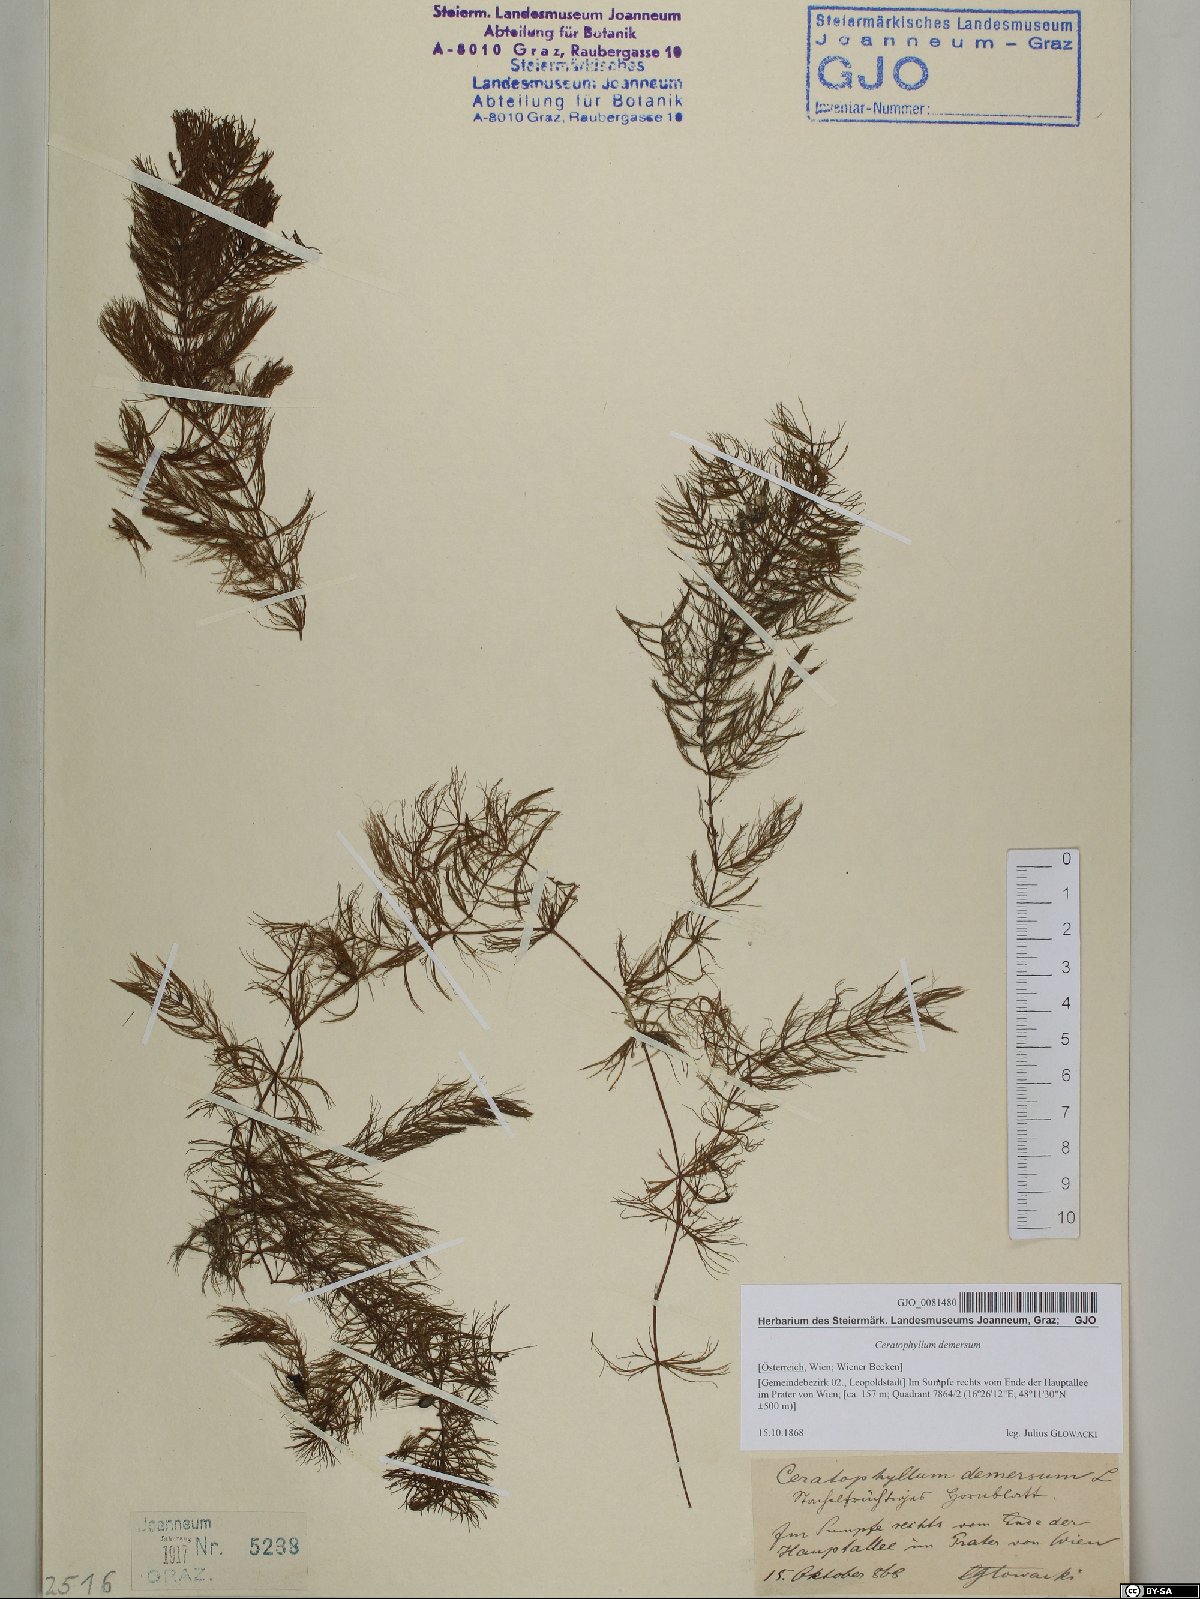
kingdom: Plantae
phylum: Tracheophyta
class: Magnoliopsida
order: Ceratophyllales
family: Ceratophyllaceae
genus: Ceratophyllum
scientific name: Ceratophyllum demersum
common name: Rigid hornwort
